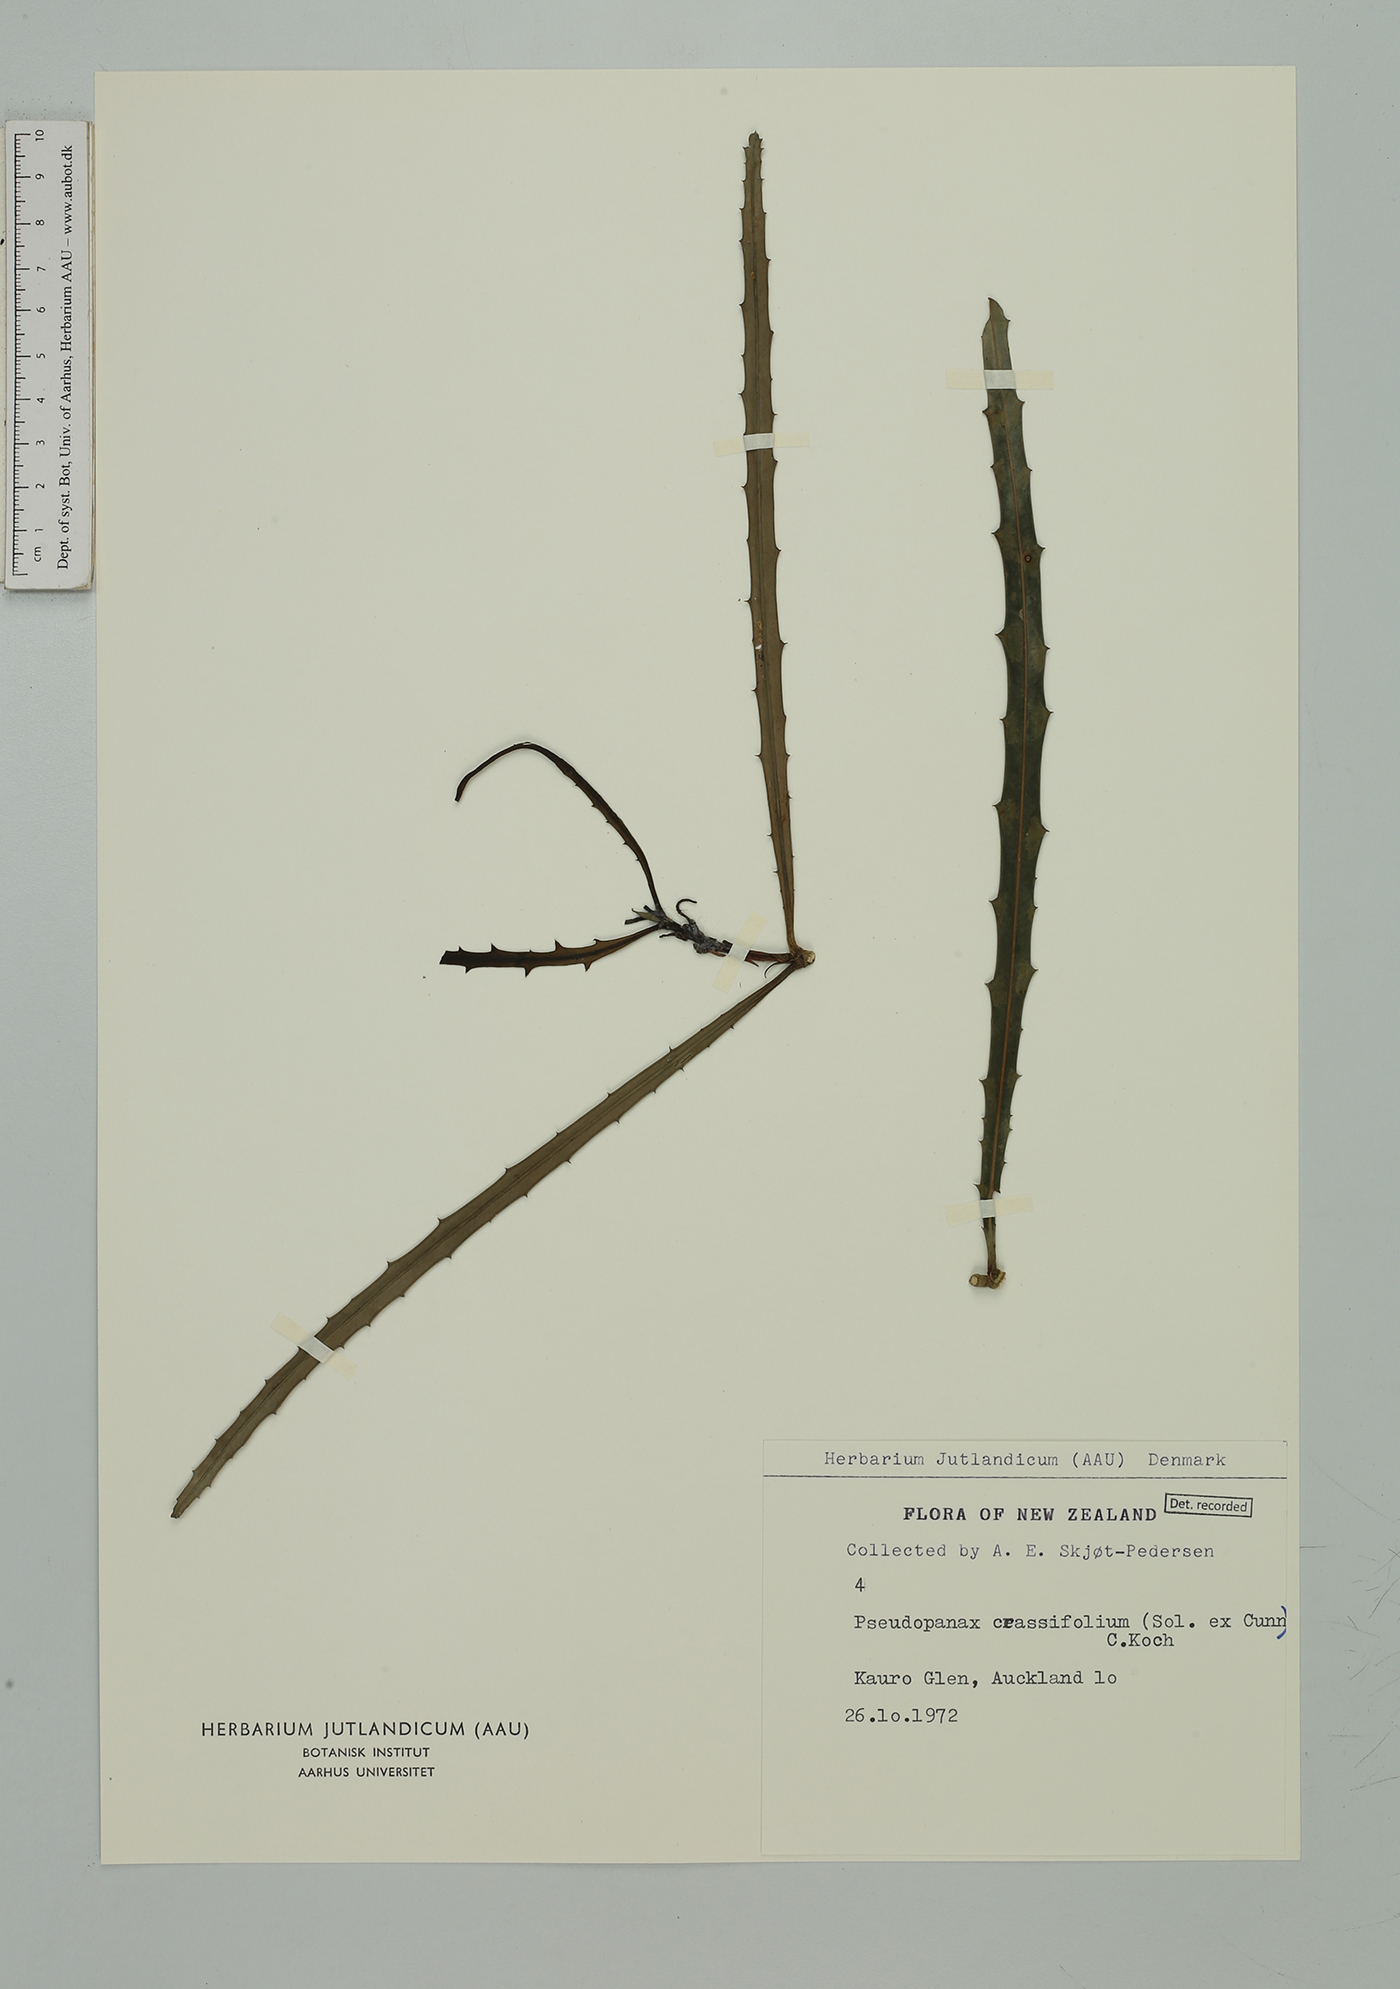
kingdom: Plantae
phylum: Tracheophyta
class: Magnoliopsida
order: Apiales
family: Araliaceae
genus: Pseudopanax
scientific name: Pseudopanax crassifolius
